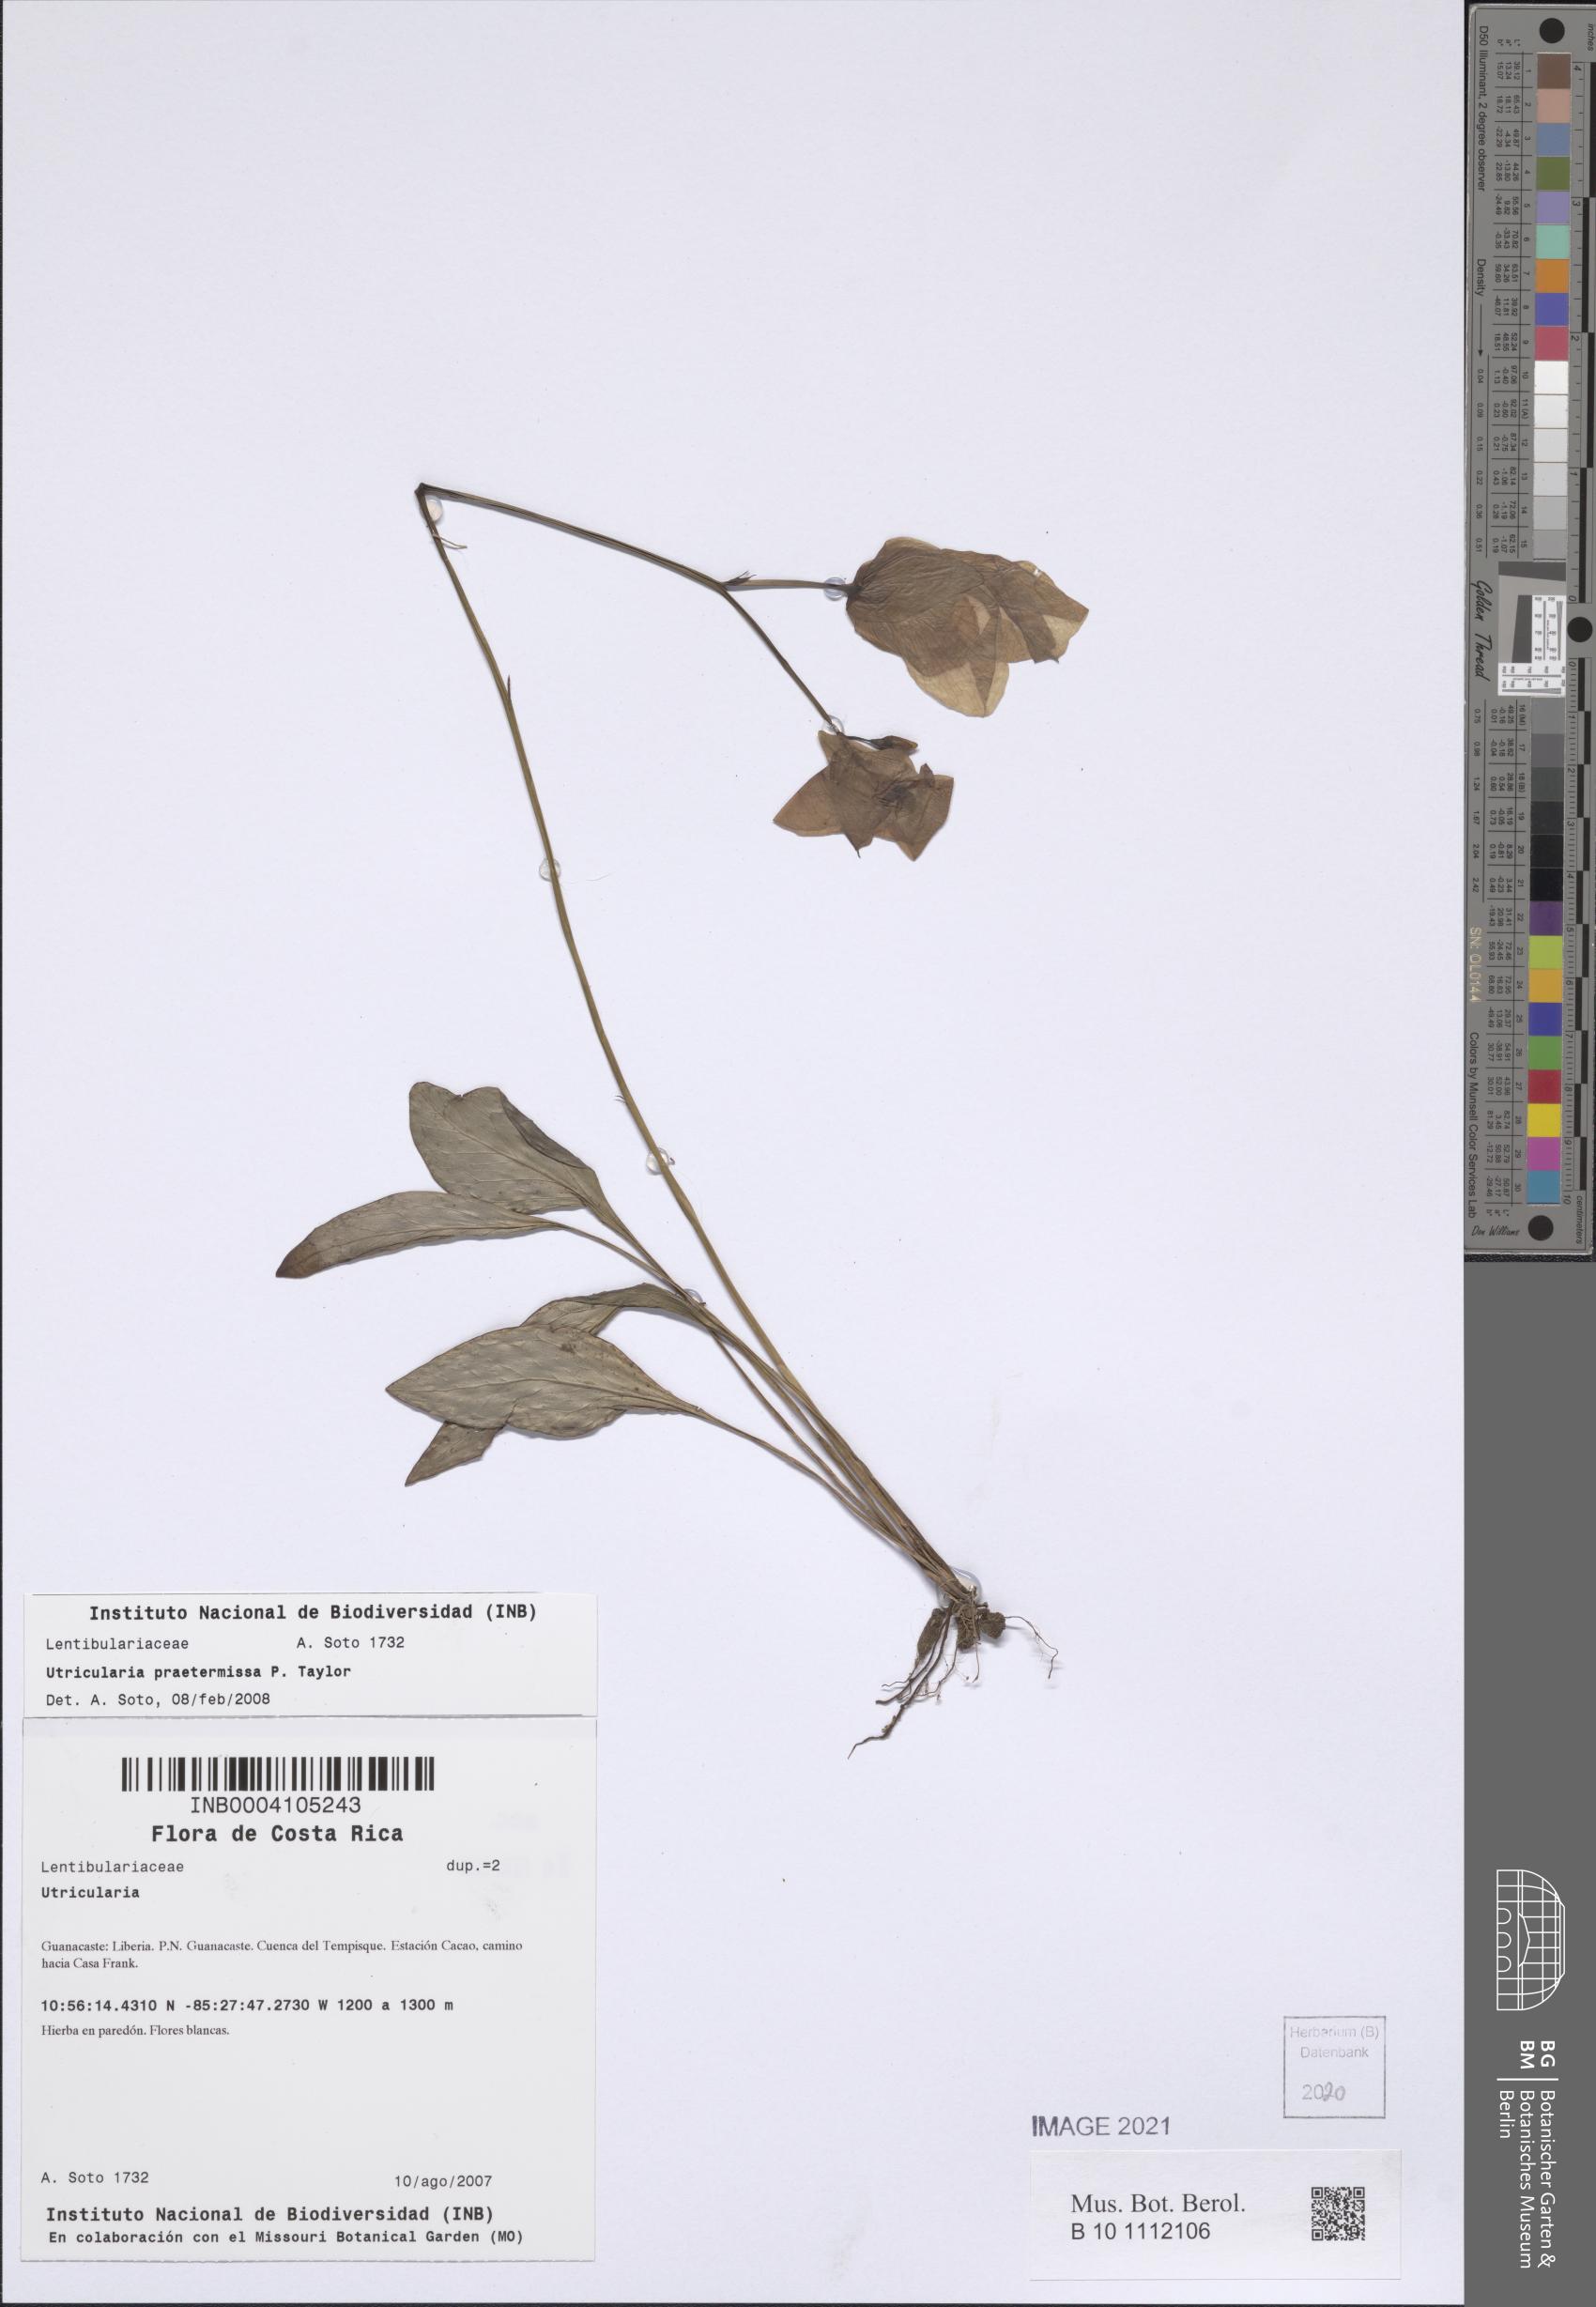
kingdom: Plantae
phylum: Tracheophyta
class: Magnoliopsida
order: Lamiales
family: Lentibulariaceae
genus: Utricularia
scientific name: Utricularia praetermissa
